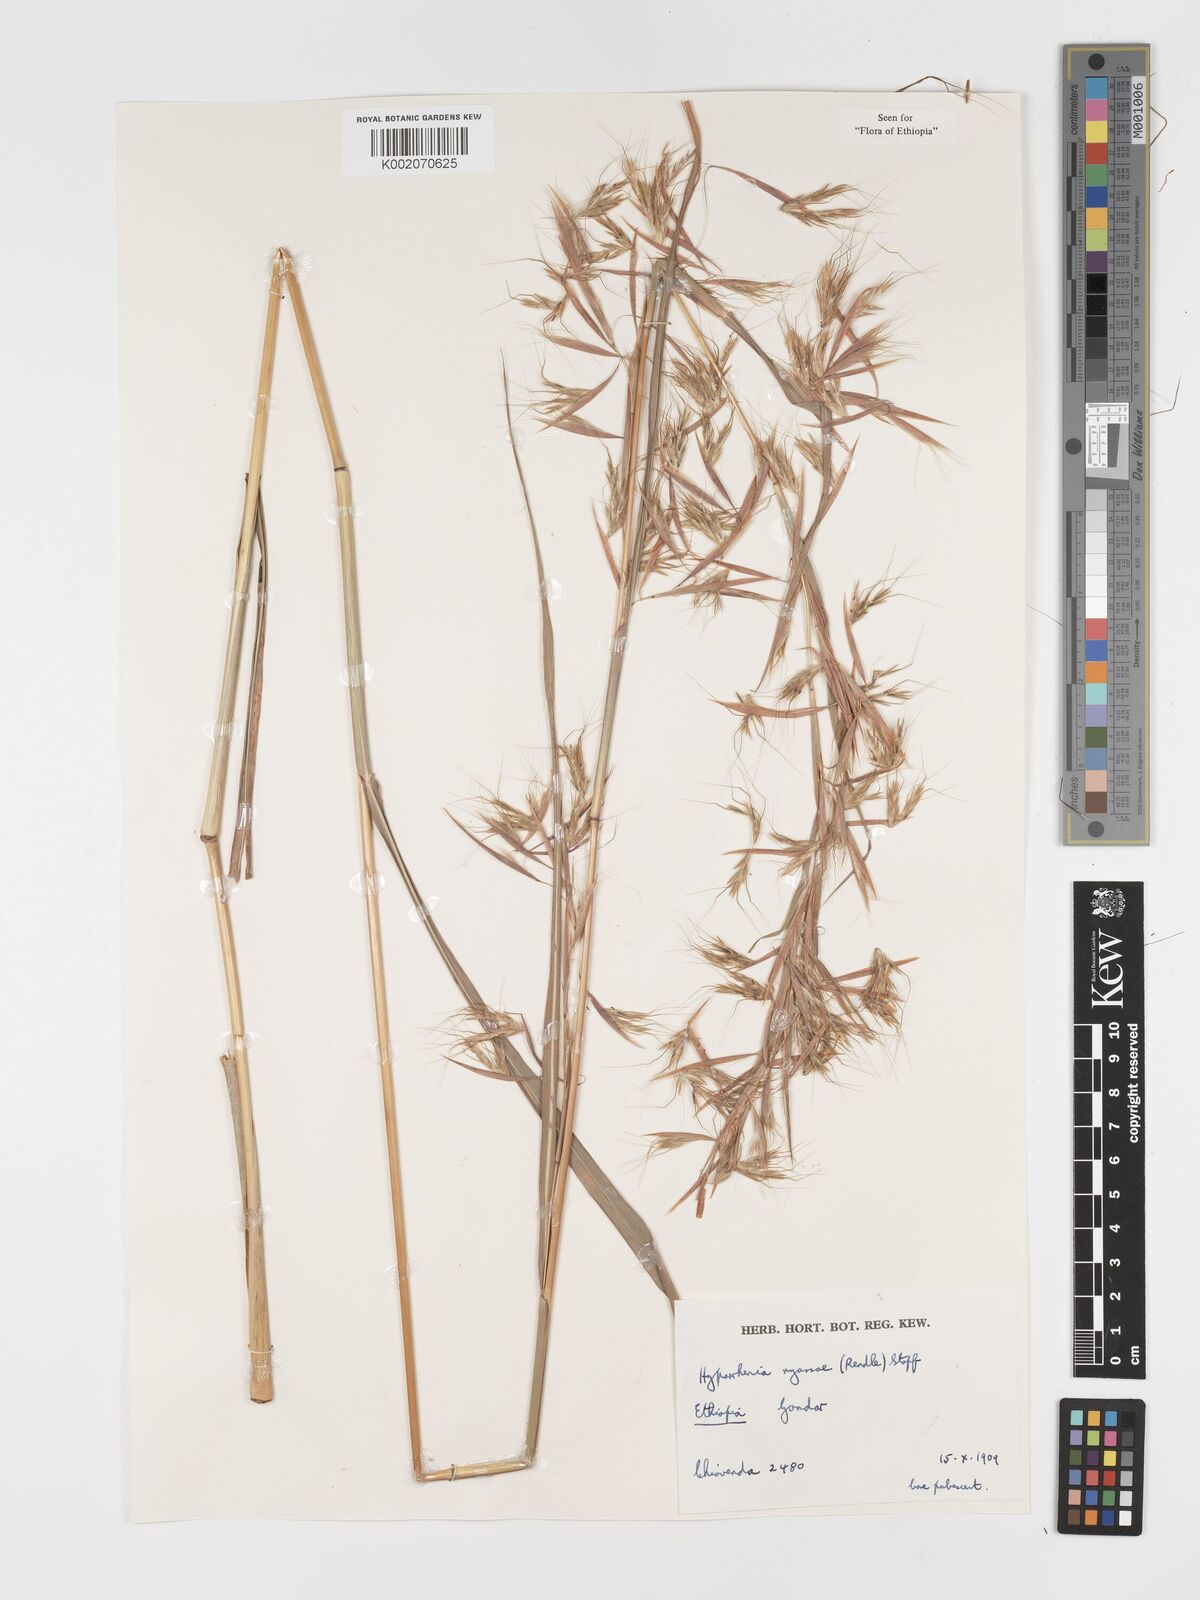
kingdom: Plantae
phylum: Tracheophyta
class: Liliopsida
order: Poales
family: Poaceae
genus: Hyparrhenia
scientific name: Hyparrhenia nyassae
